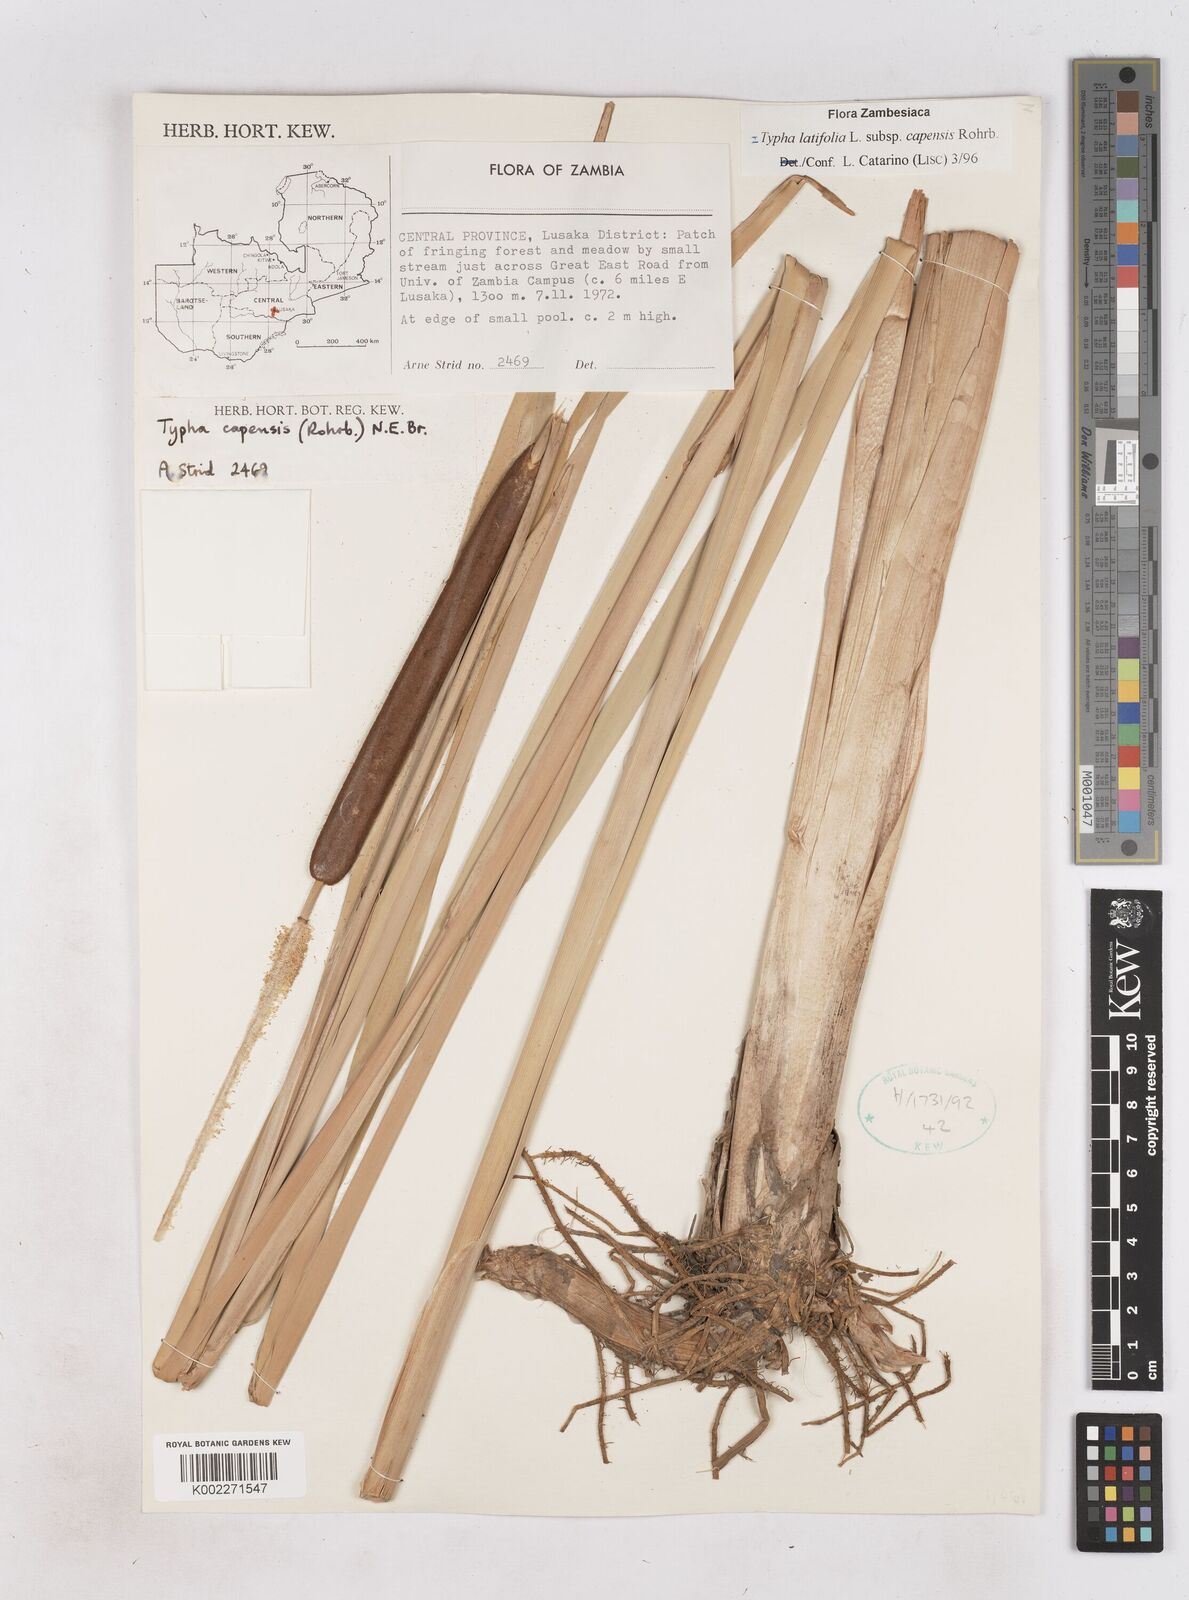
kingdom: Plantae
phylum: Tracheophyta
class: Liliopsida
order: Poales
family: Typhaceae
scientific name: Typhaceae
